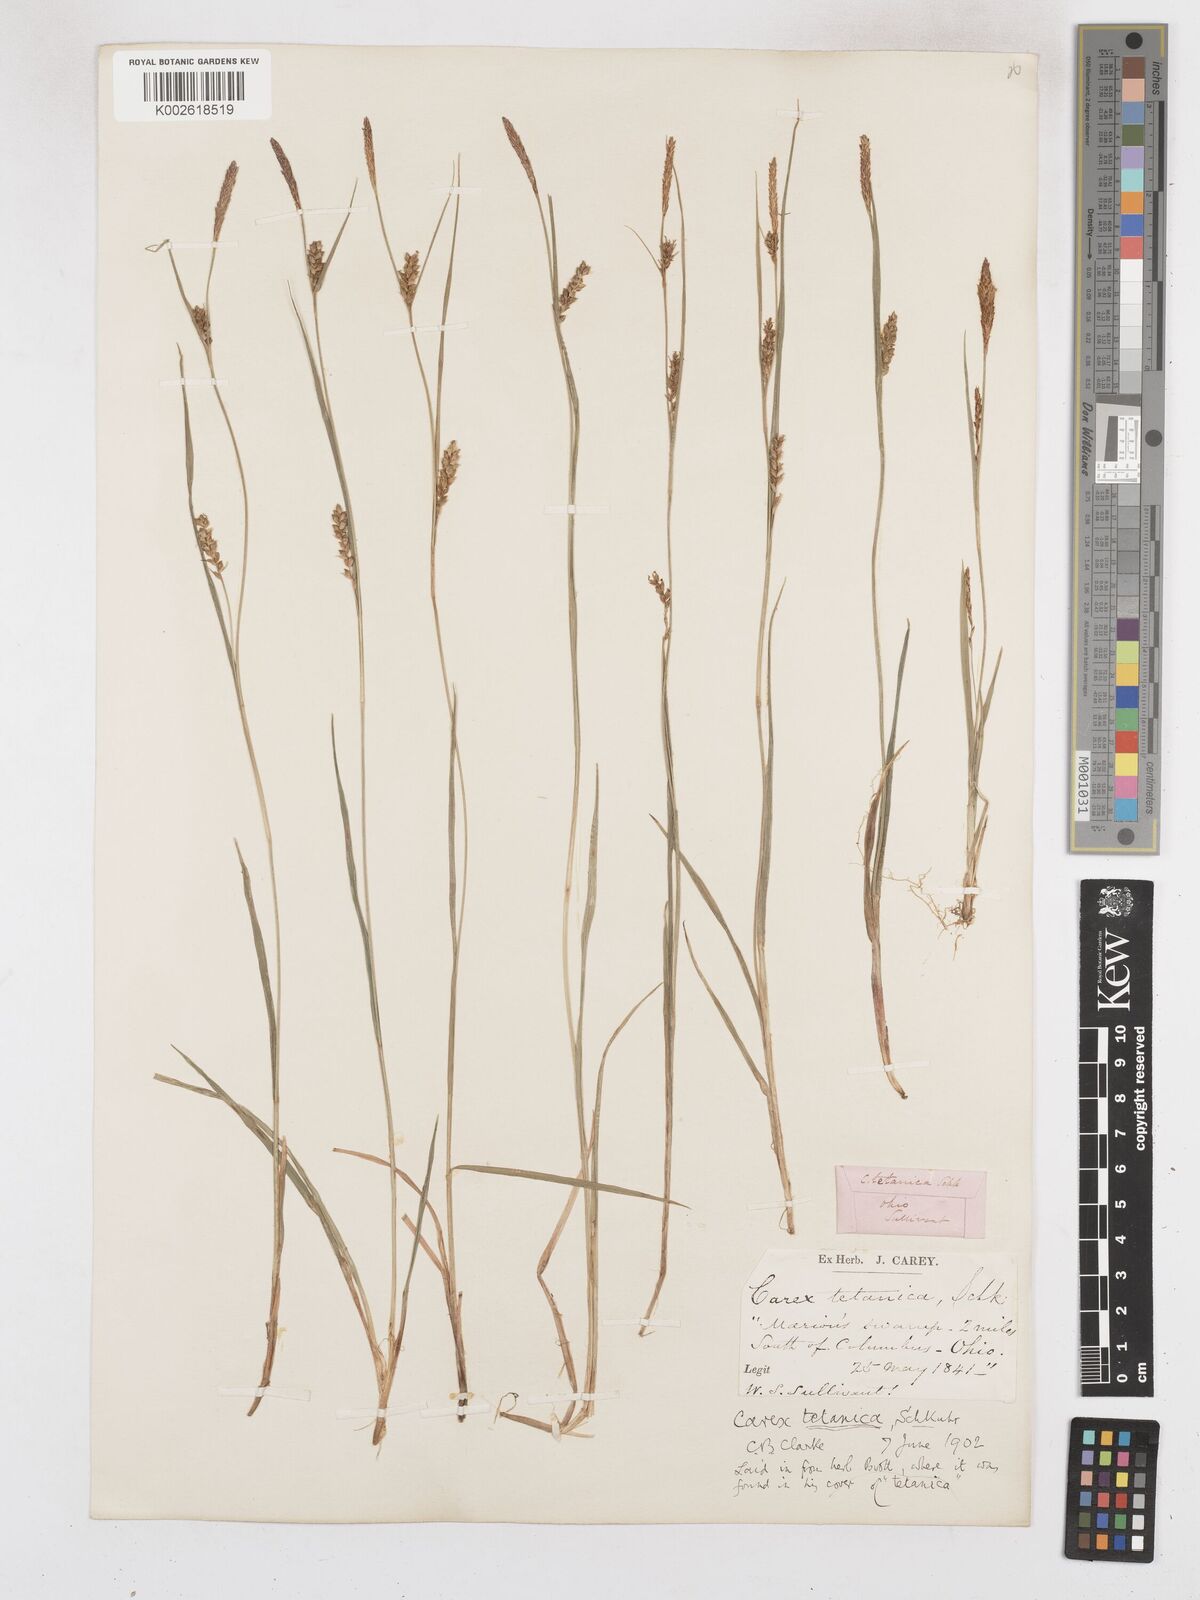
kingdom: Plantae
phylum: Tracheophyta
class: Liliopsida
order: Poales
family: Cyperaceae
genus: Carex
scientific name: Carex tetanica
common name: Rigid sedge
